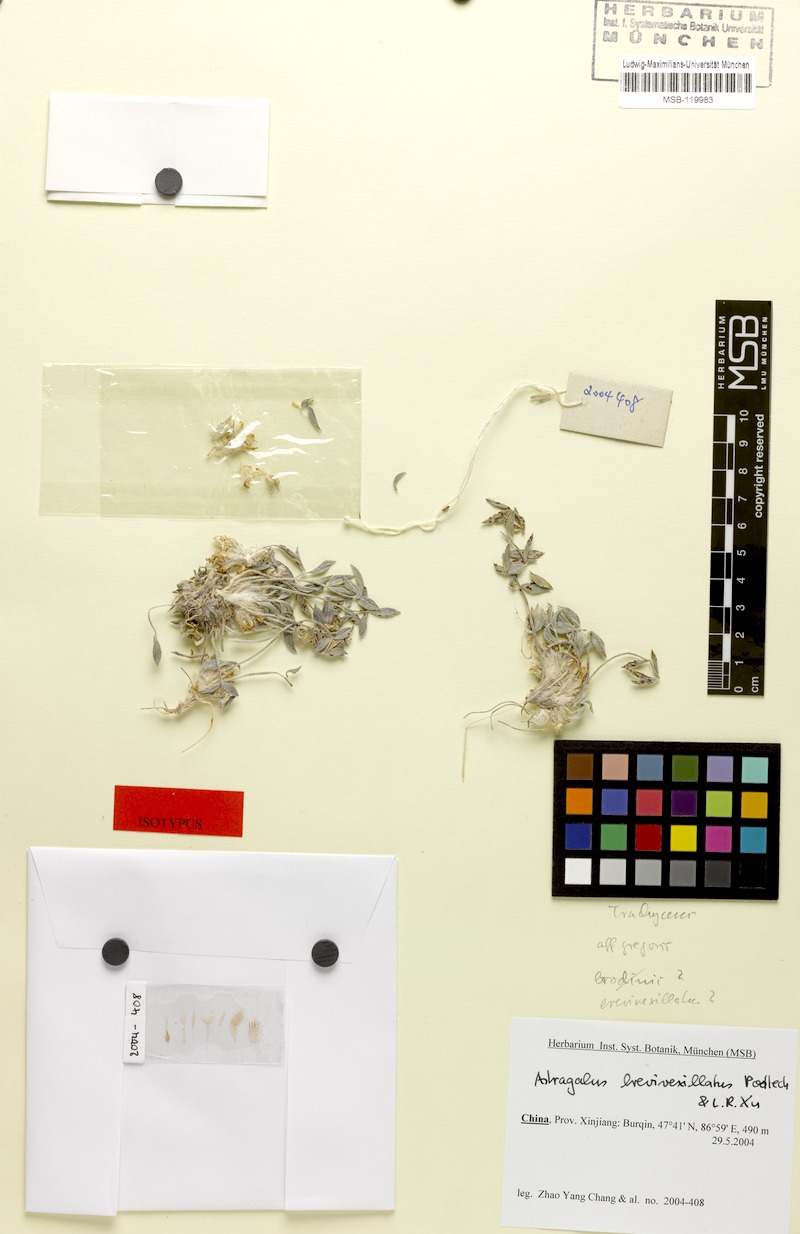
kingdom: Plantae
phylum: Tracheophyta
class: Magnoliopsida
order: Fabales
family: Fabaceae
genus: Astragalus
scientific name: Astragalus brevivexillatus
